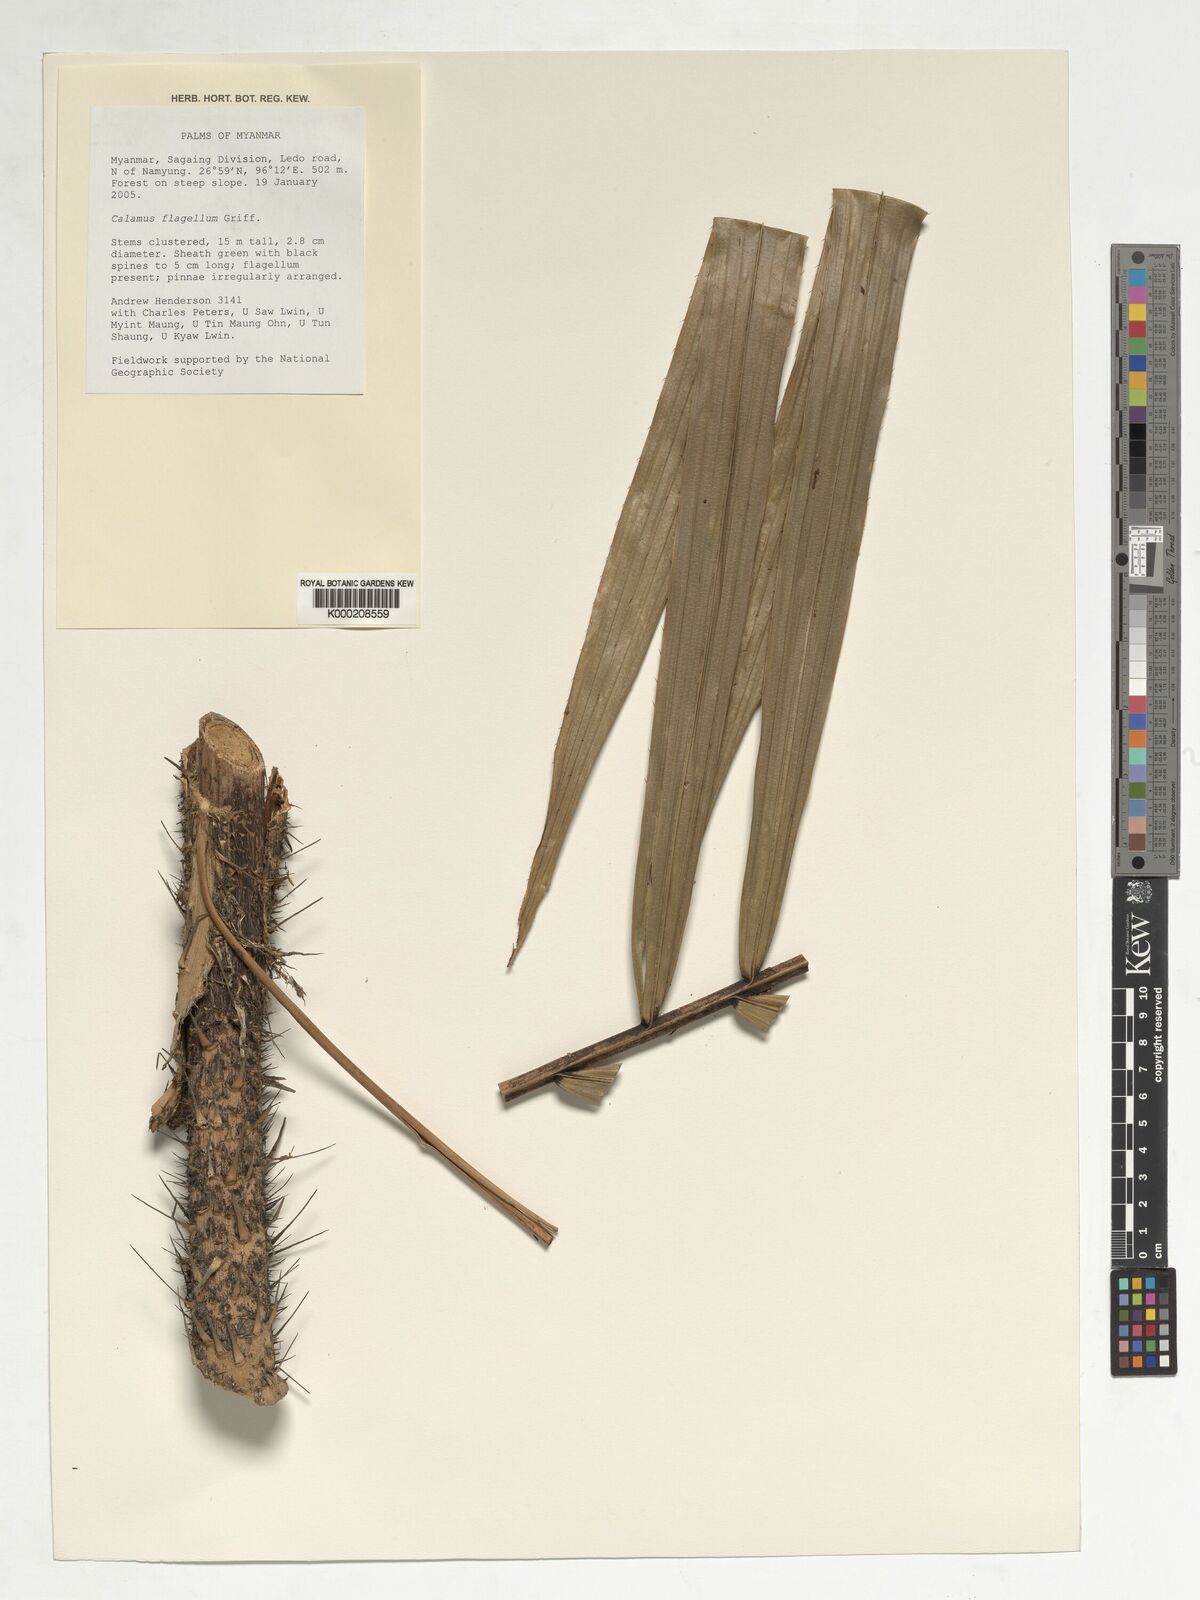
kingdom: Plantae
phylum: Tracheophyta
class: Liliopsida
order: Arecales
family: Arecaceae
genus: Calamus
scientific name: Calamus
